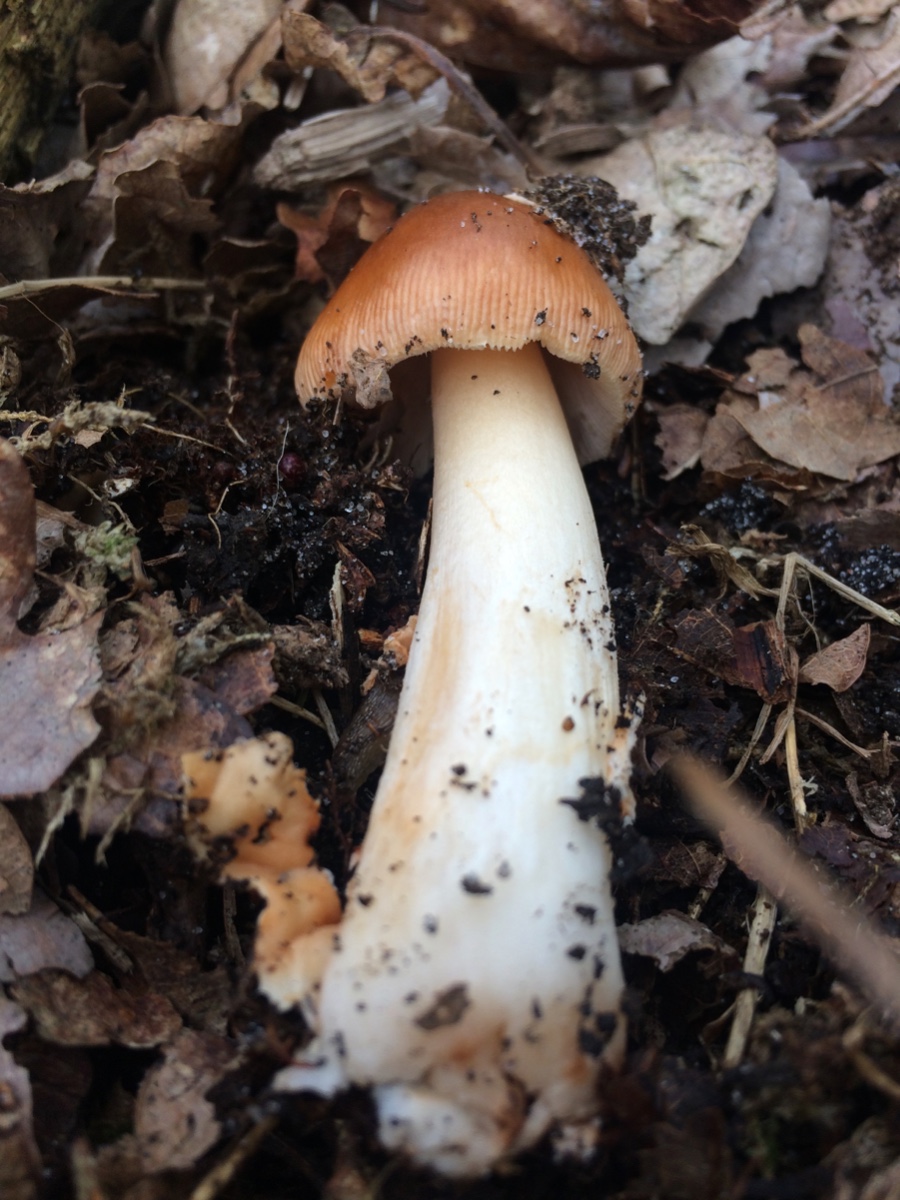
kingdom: Fungi
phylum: Basidiomycota
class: Agaricomycetes
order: Agaricales
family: Amanitaceae
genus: Amanita
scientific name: Amanita fulva
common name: brun kam-fluesvamp
